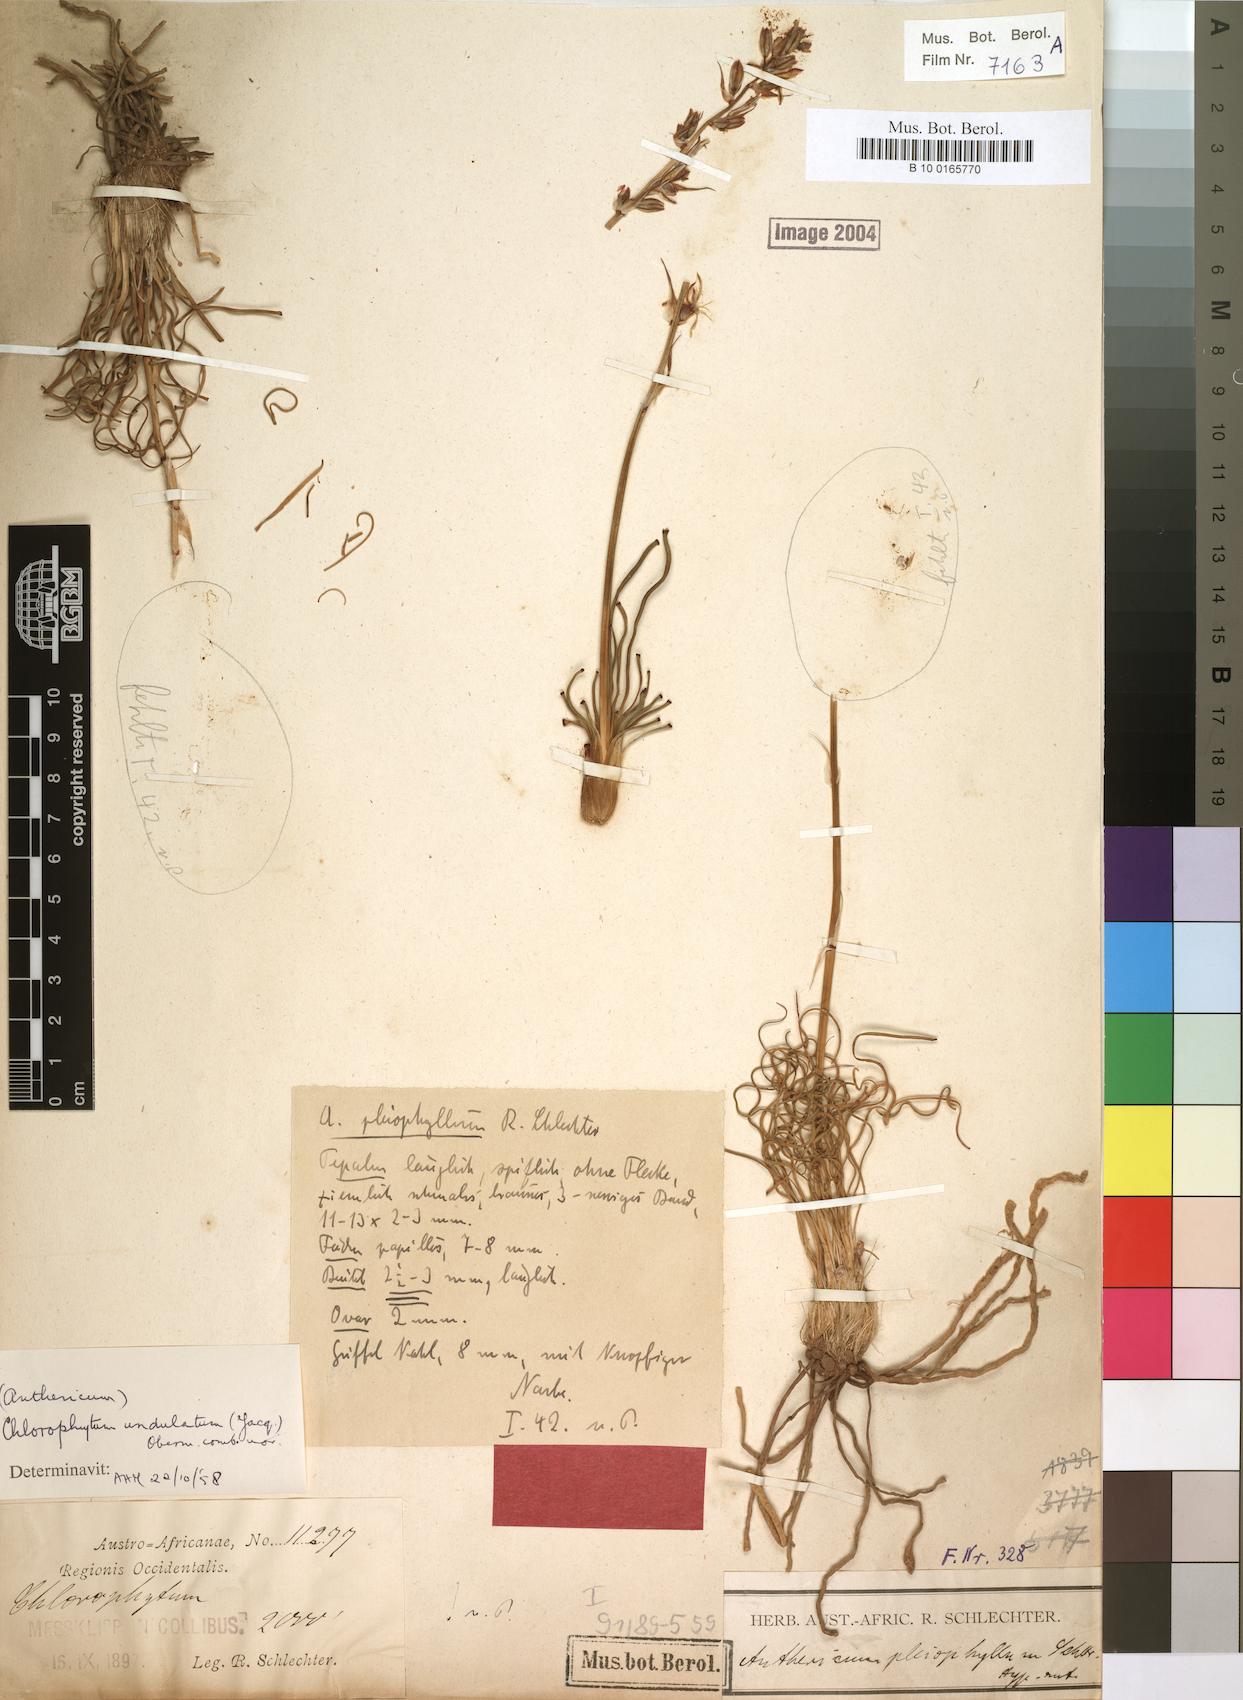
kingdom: Plantae
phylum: Tracheophyta
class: Liliopsida
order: Asparagales
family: Asparagaceae
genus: Chlorophytum
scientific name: Chlorophytum graminifolium
